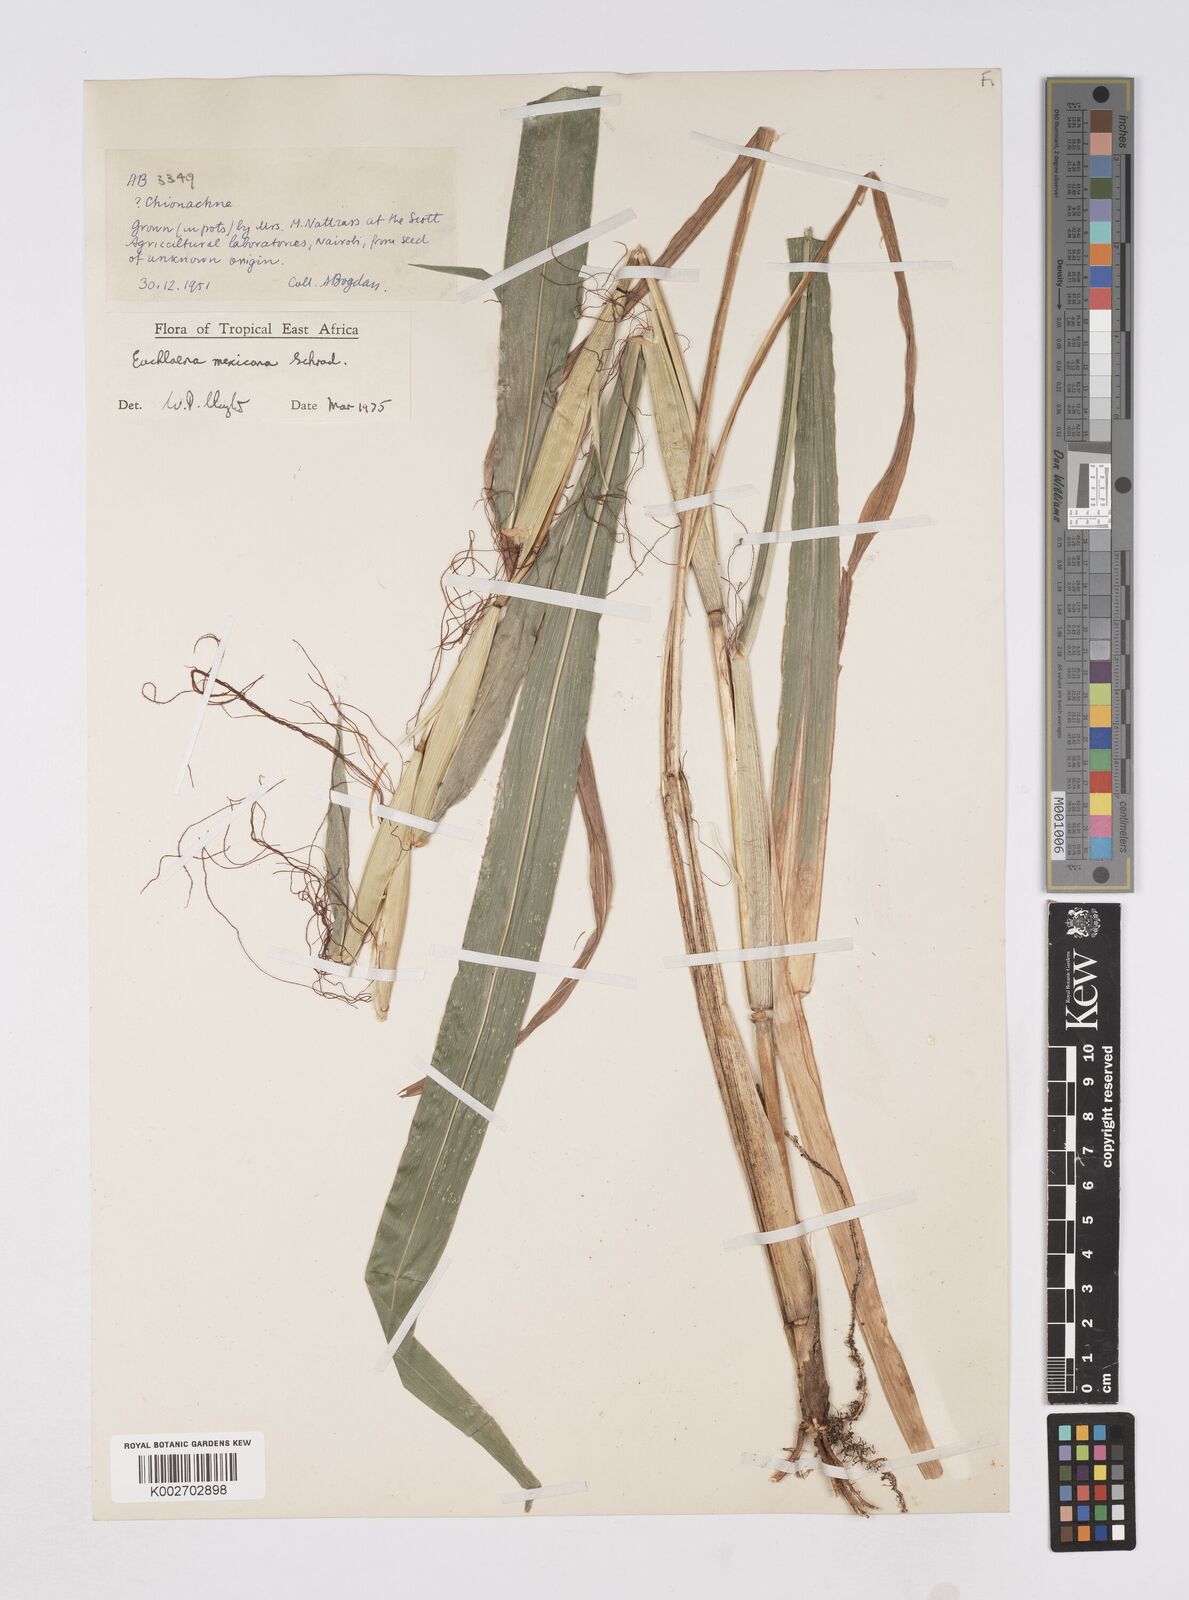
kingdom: Plantae
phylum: Tracheophyta
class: Liliopsida
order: Poales
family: Poaceae
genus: Zea
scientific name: Zea mexicana
